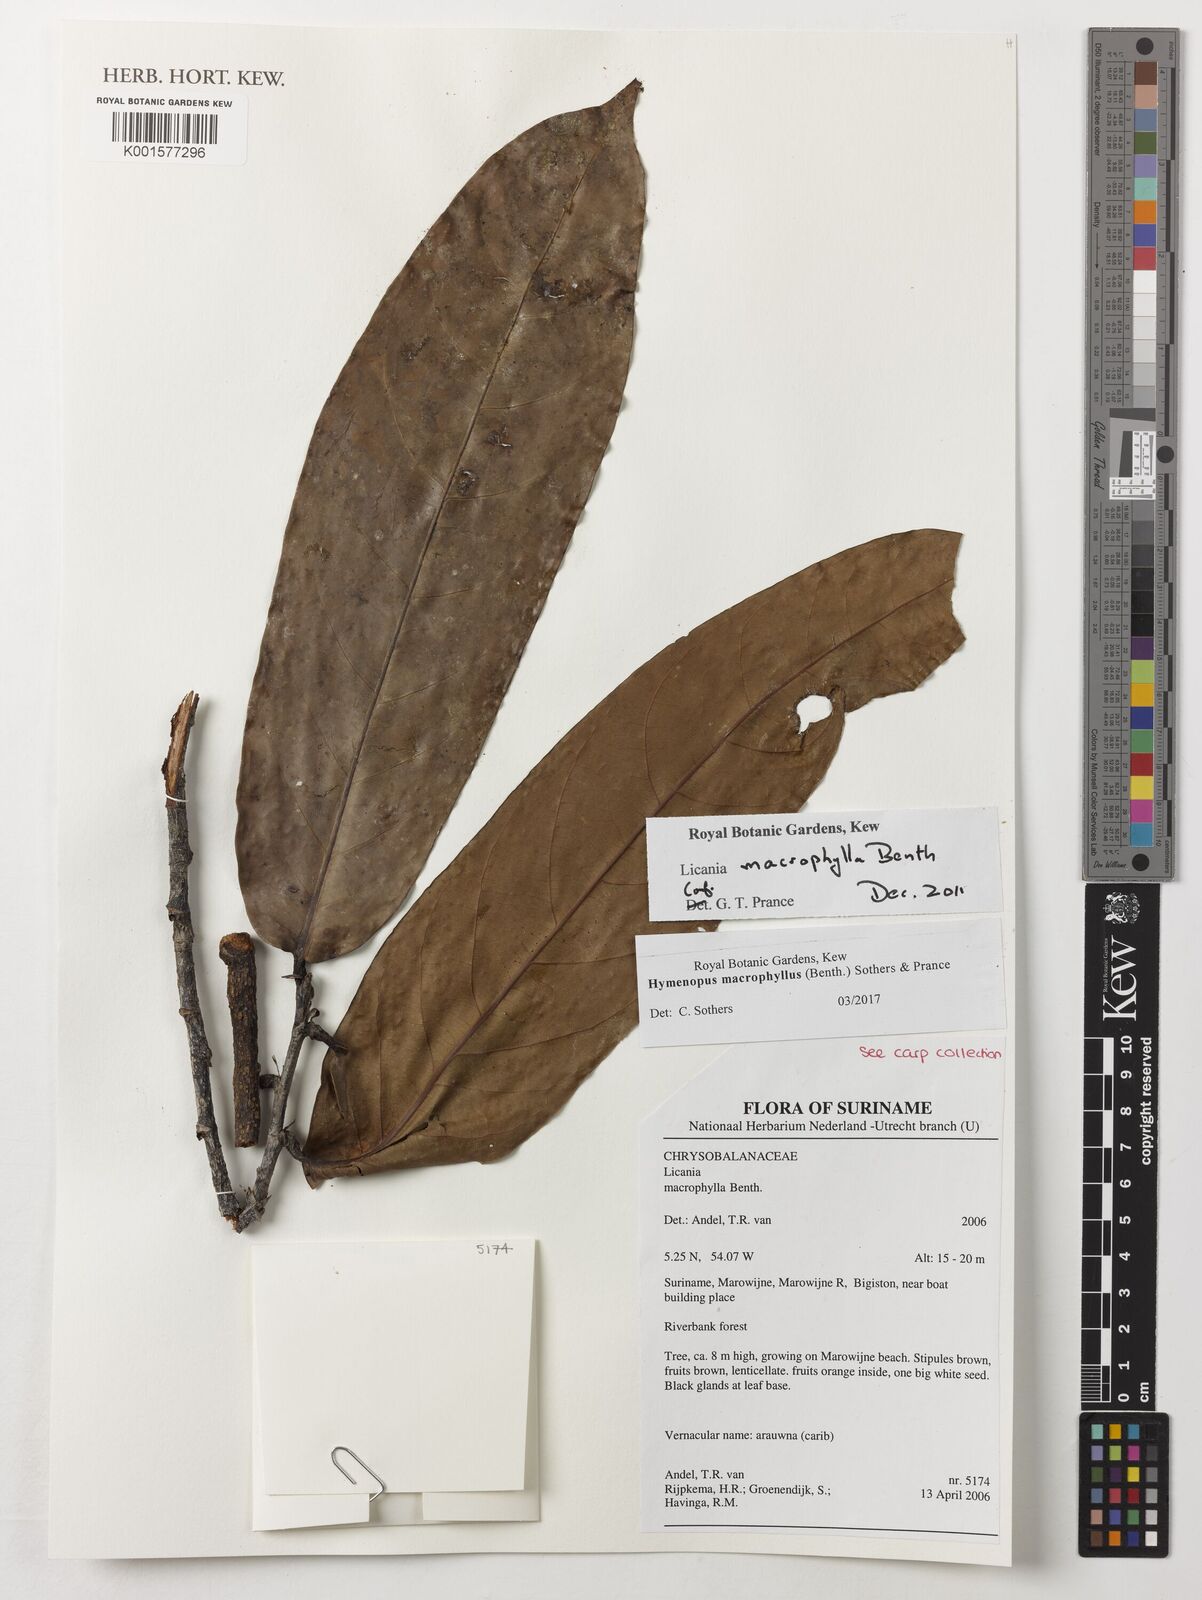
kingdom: Plantae
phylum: Tracheophyta
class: Magnoliopsida
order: Malpighiales
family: Chrysobalanaceae
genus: Hymenopus
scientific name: Hymenopus macrophyllus
